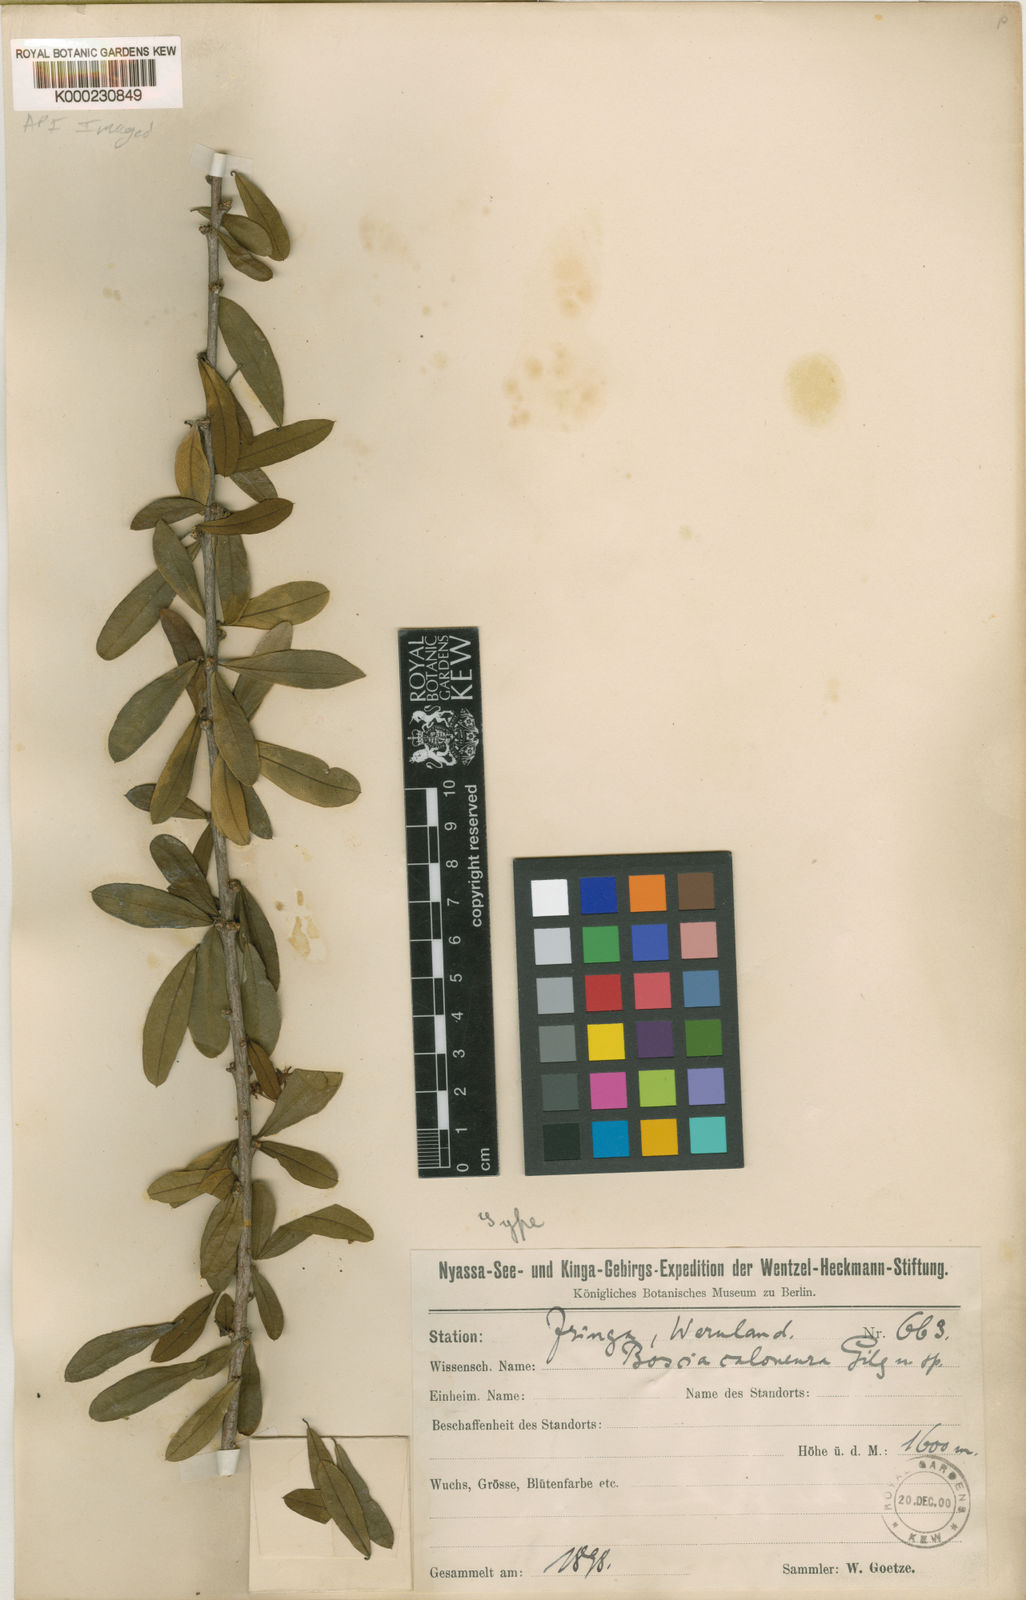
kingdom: Plantae
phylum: Tracheophyta
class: Magnoliopsida
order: Brassicales
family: Capparaceae
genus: Boscia
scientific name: Boscia
